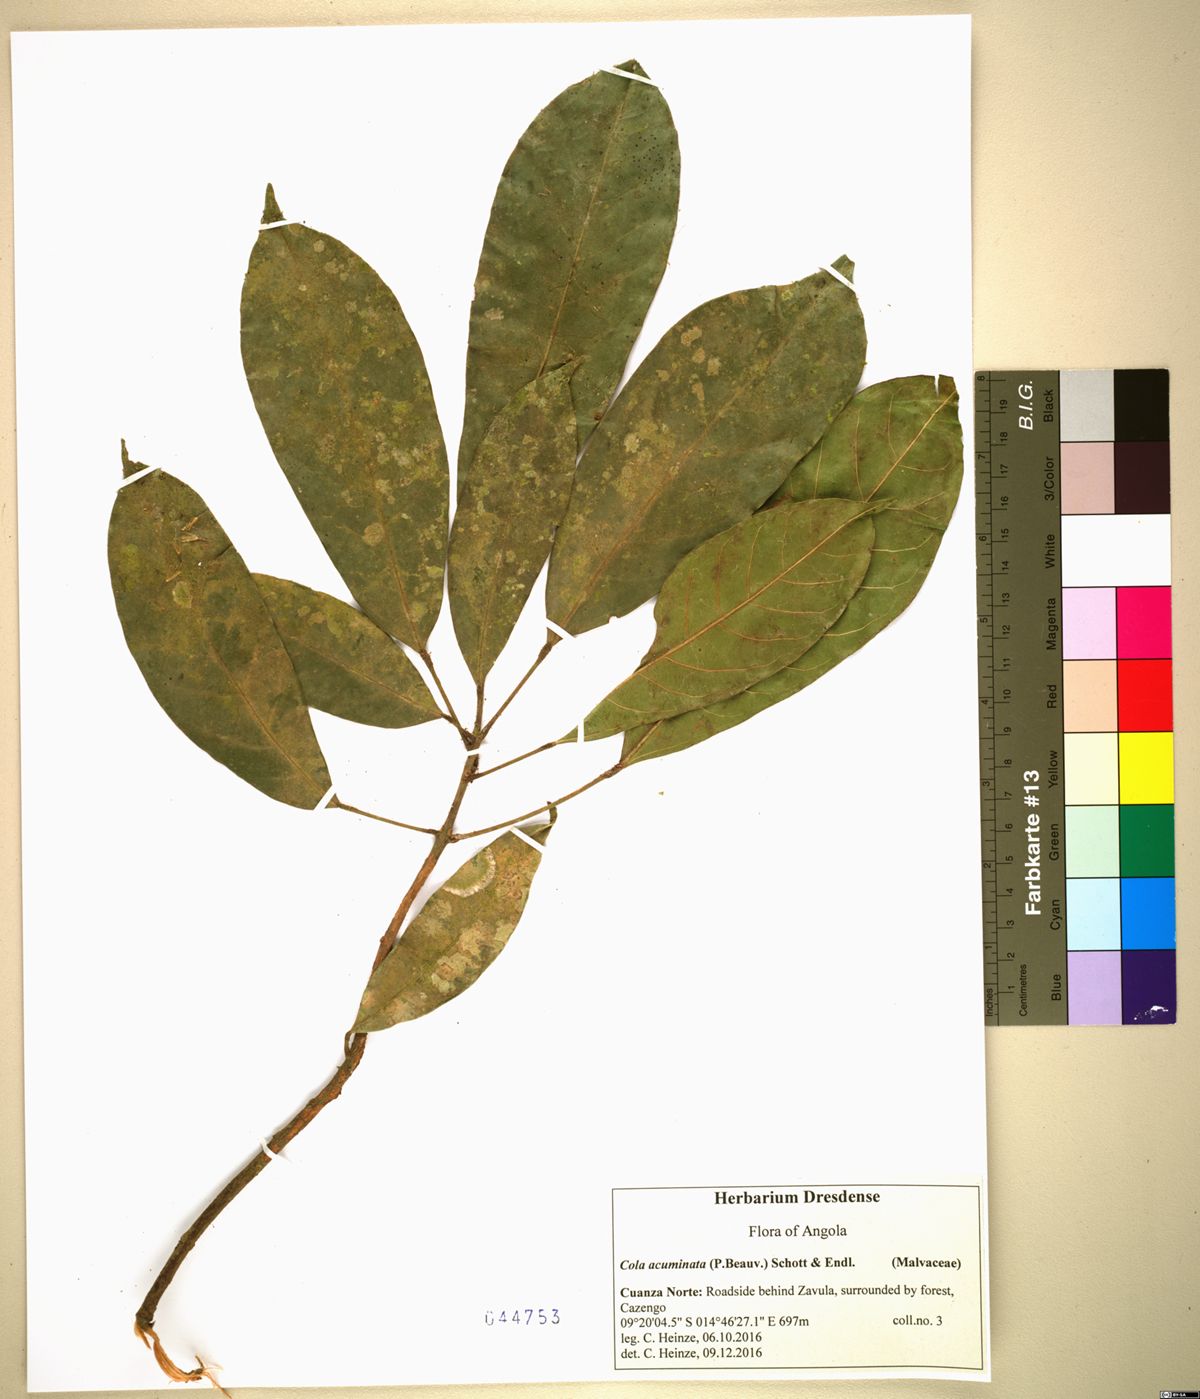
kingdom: Plantae
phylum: Tracheophyta
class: Magnoliopsida
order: Malvales
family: Malvaceae
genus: Cola
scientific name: Cola acuminata
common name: True kola
